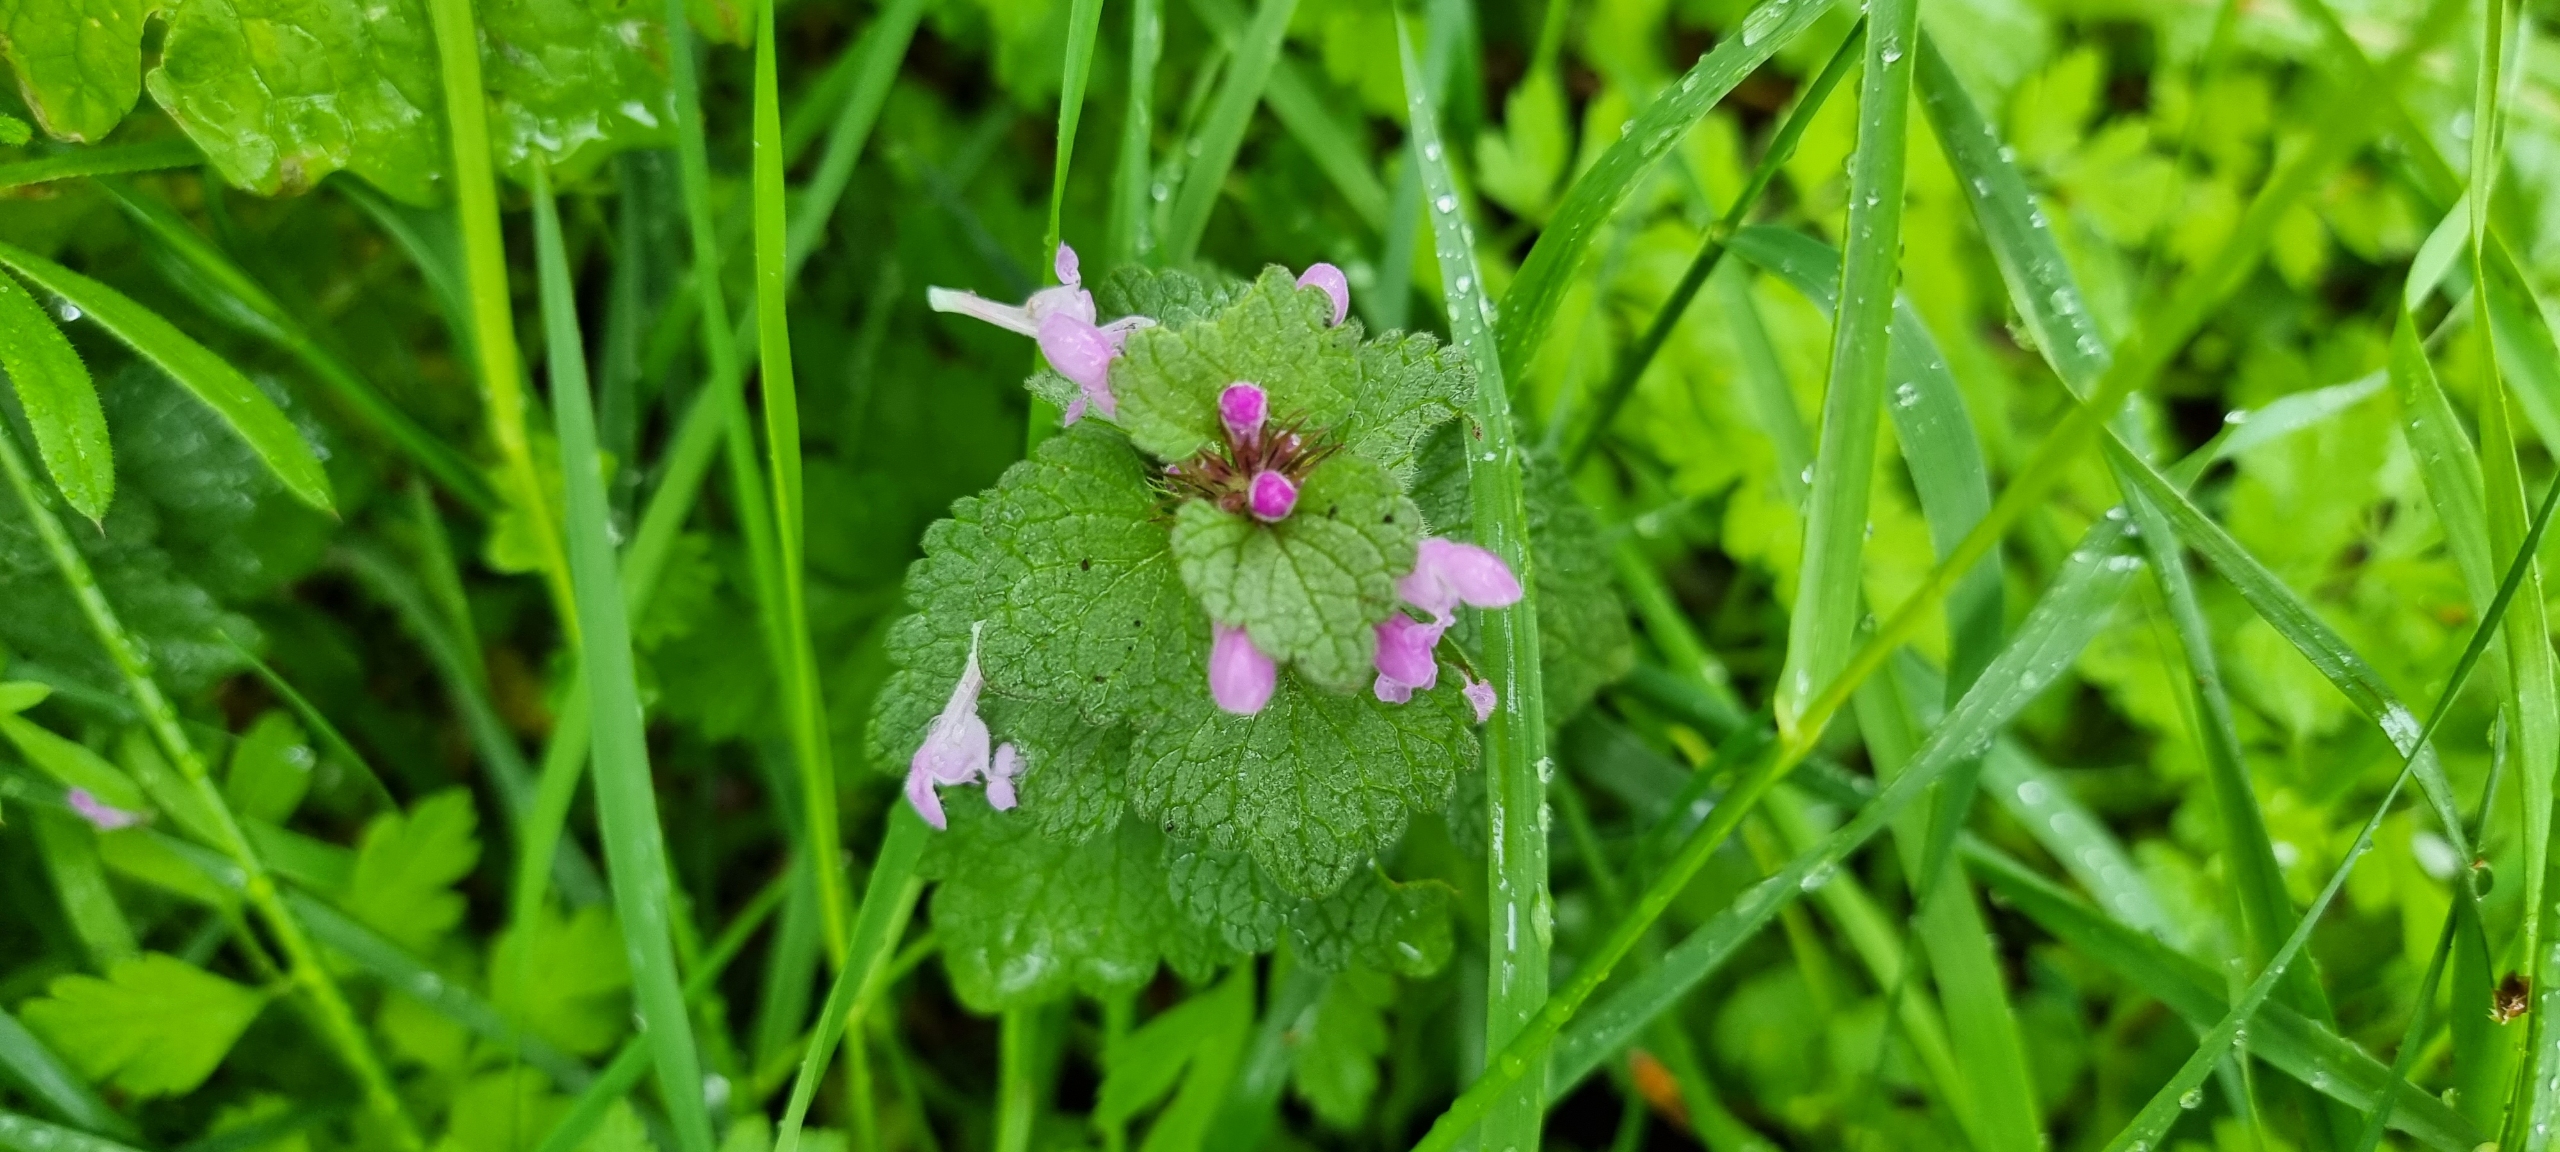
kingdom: Plantae
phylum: Tracheophyta
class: Magnoliopsida
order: Lamiales
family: Lamiaceae
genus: Lamium
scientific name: Lamium purpureum
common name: Rød tvetand
